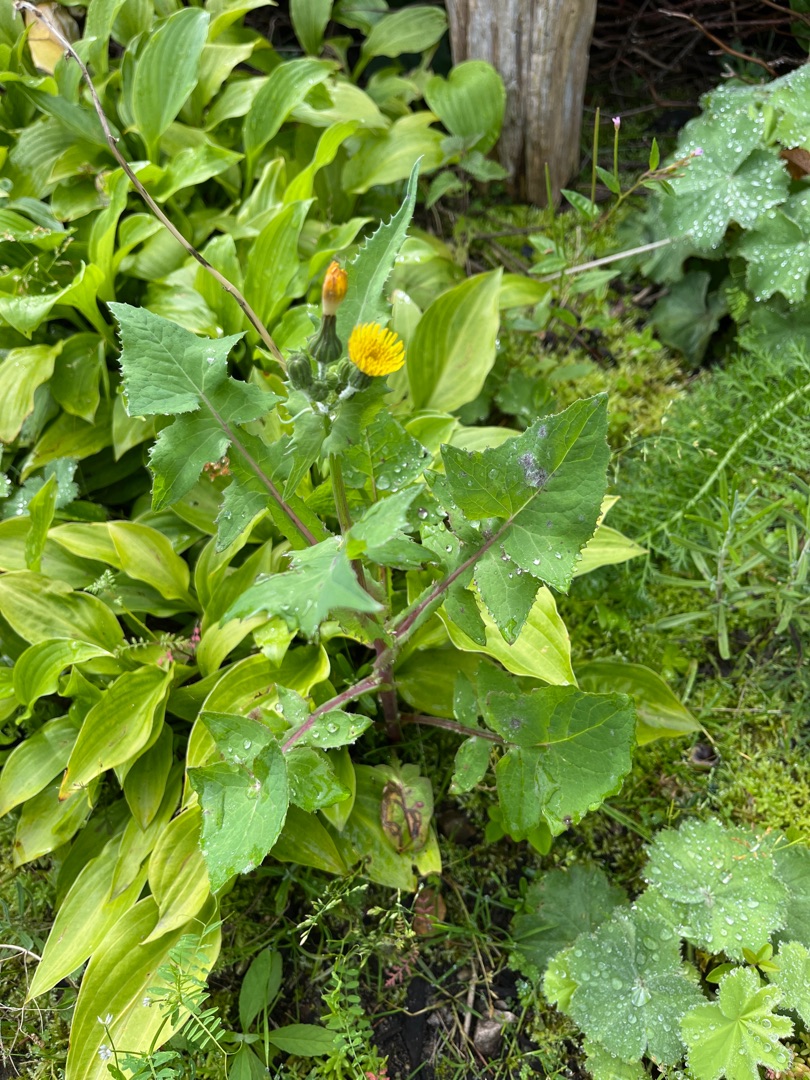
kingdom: Plantae
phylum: Tracheophyta
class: Magnoliopsida
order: Asterales
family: Asteraceae
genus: Sonchus
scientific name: Sonchus oleraceus
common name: Almindelig svinemælk
